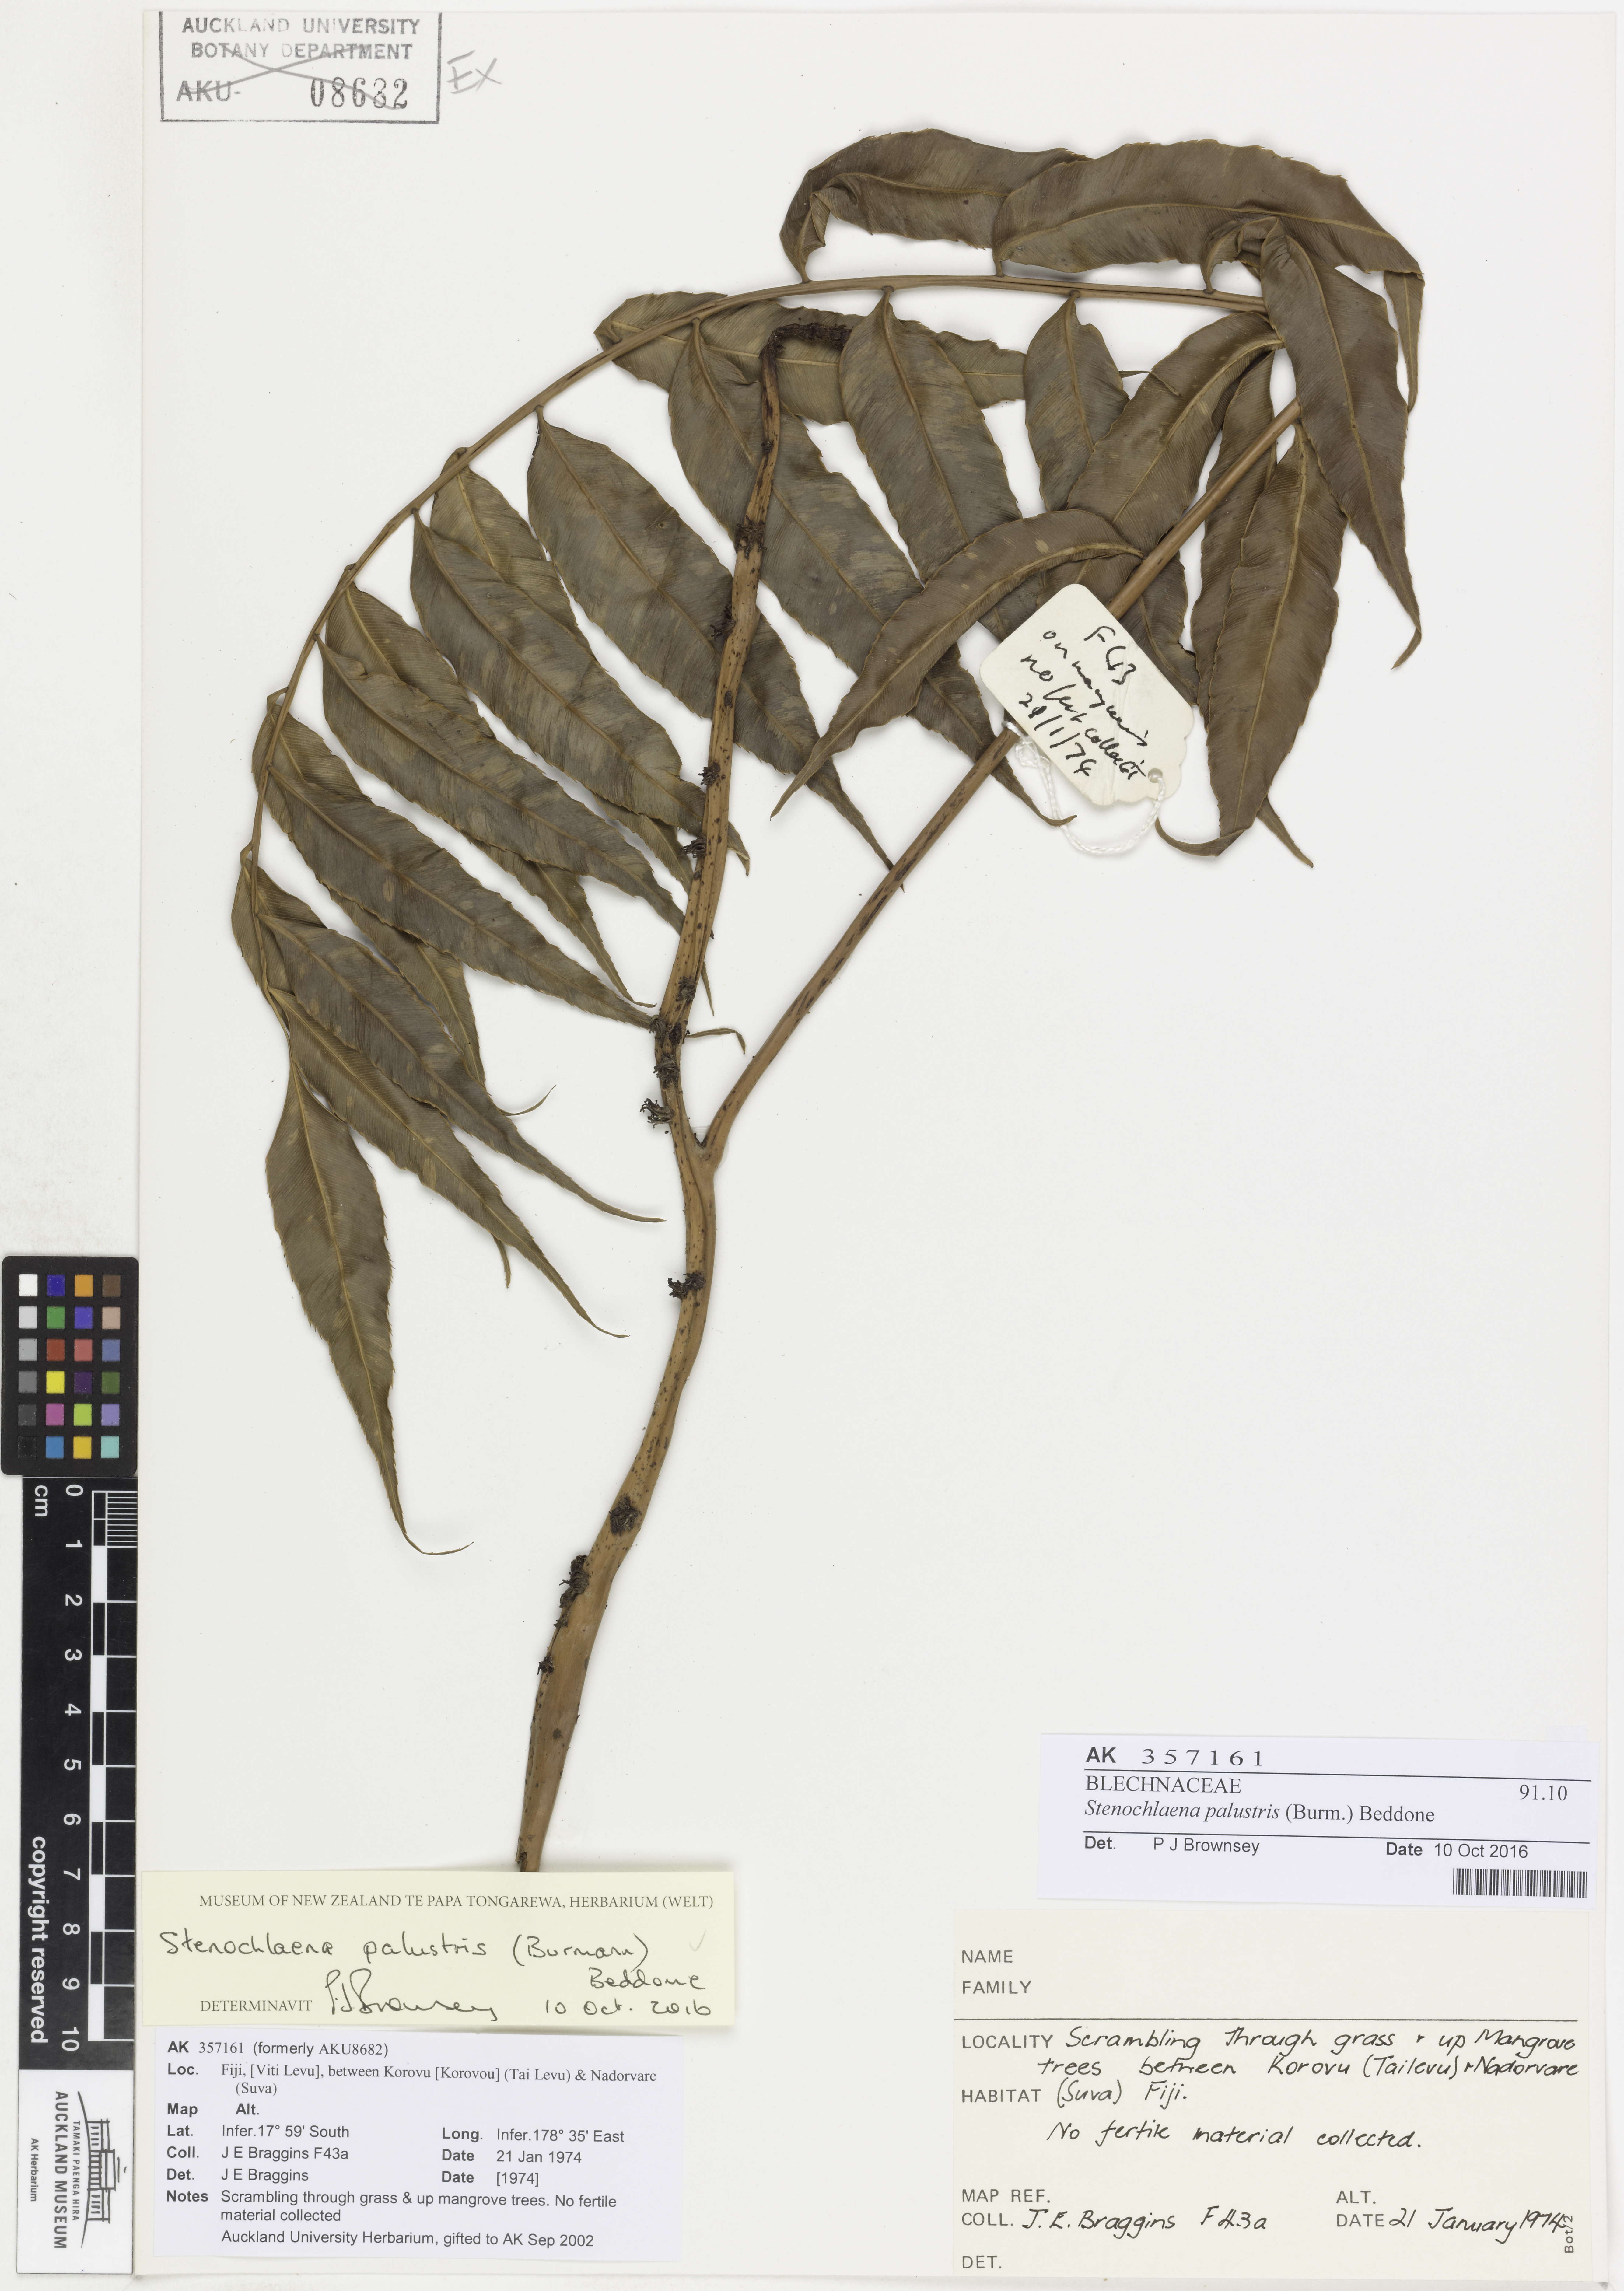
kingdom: Plantae
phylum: Tracheophyta
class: Polypodiopsida
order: Polypodiales
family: Blechnaceae
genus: Stenochlaena
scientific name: Stenochlaena palustris
